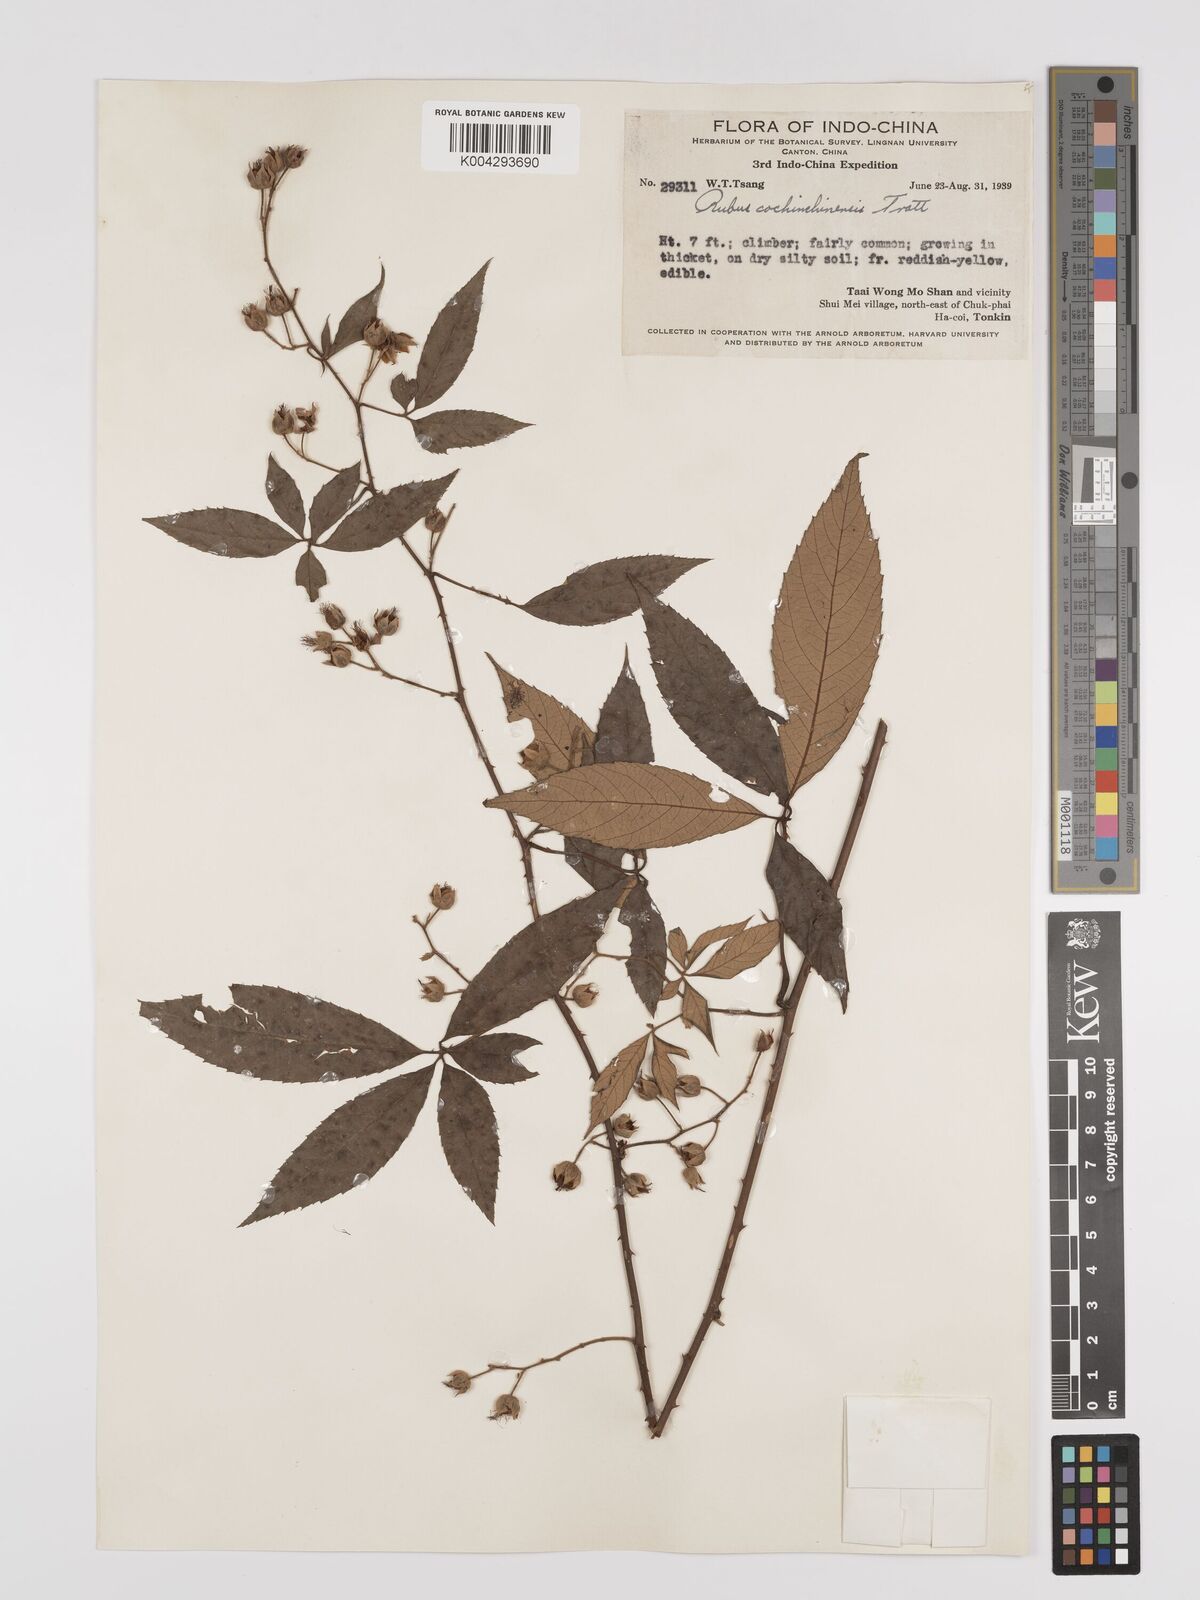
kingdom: Plantae
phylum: Tracheophyta
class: Magnoliopsida
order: Rosales
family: Rosaceae
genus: Rubus
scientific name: Rubus cochinchinensis
